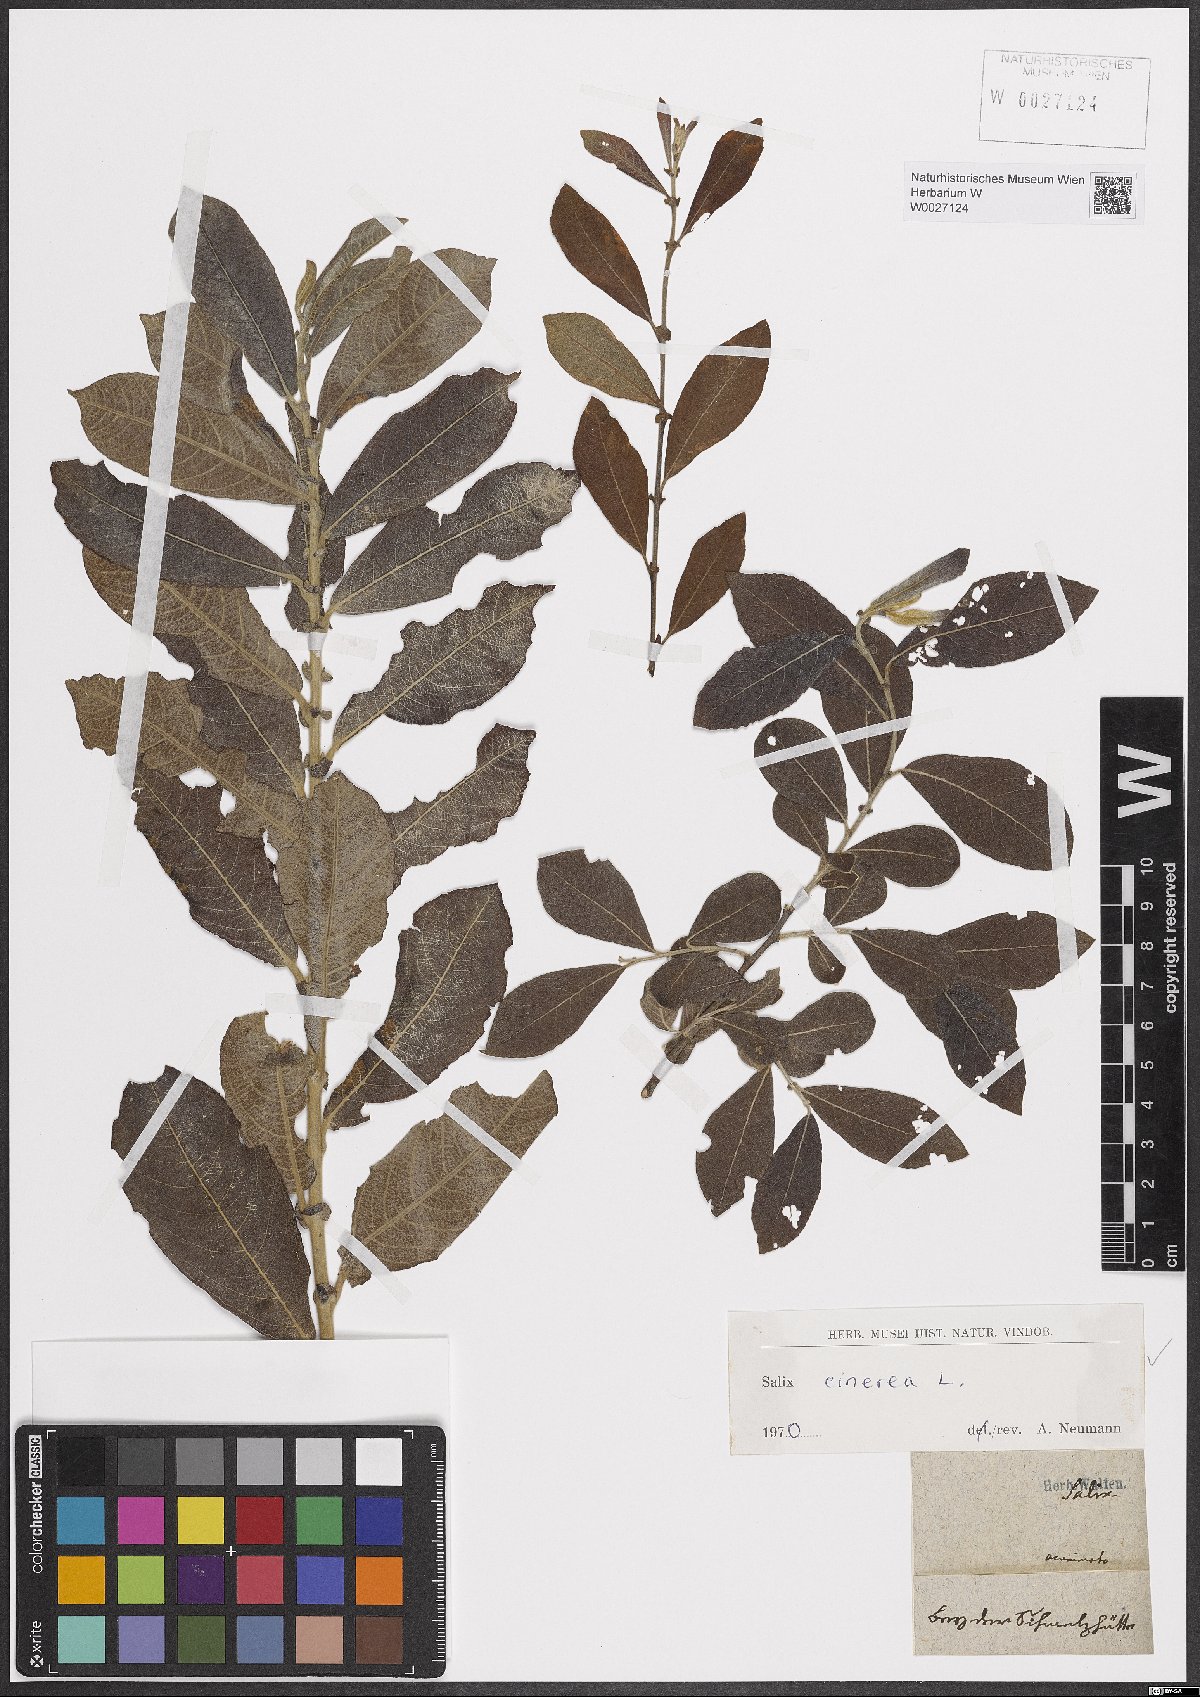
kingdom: Plantae
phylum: Tracheophyta
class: Magnoliopsida
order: Malpighiales
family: Salicaceae
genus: Salix
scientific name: Salix cinerea
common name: Common sallow
